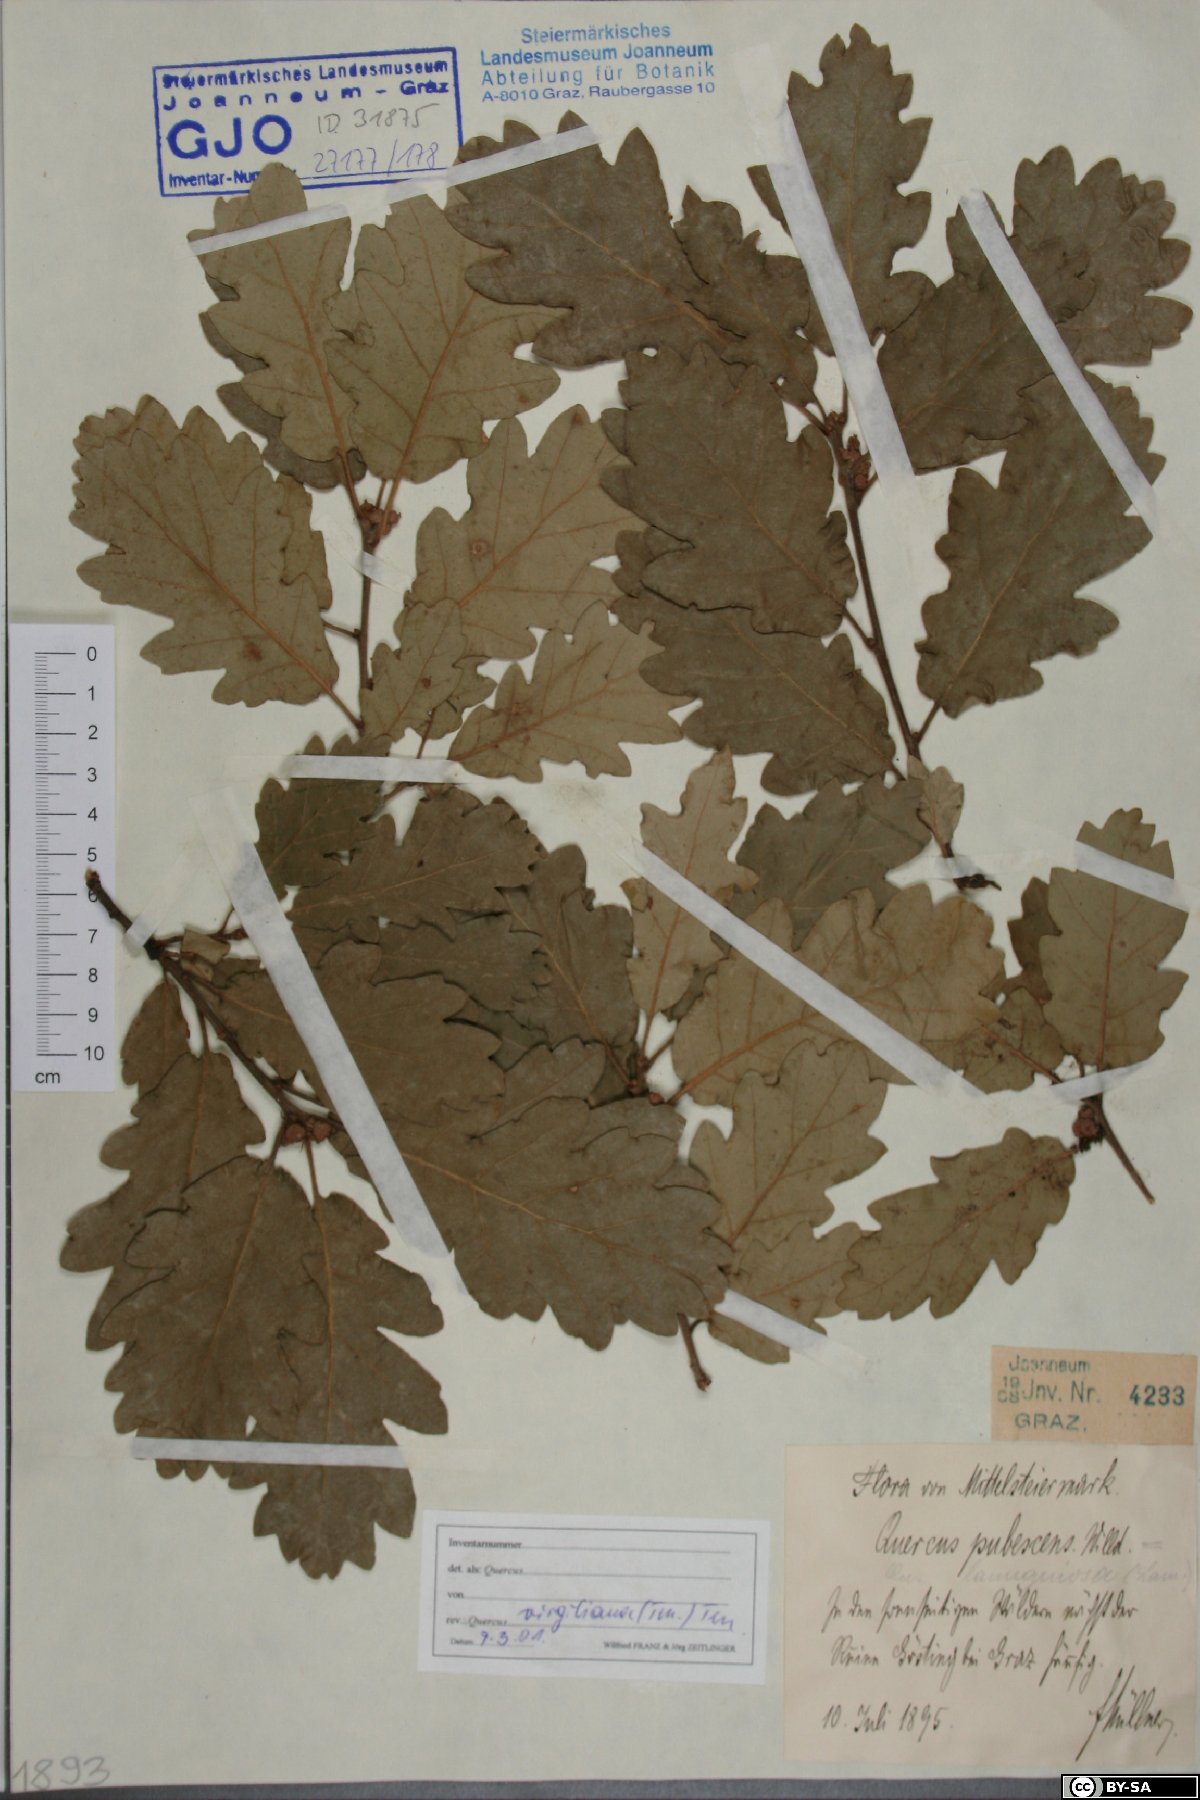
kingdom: Plantae
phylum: Tracheophyta
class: Magnoliopsida
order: Fagales
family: Fagaceae
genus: Quercus
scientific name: Quercus pubescens
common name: Downy oak
